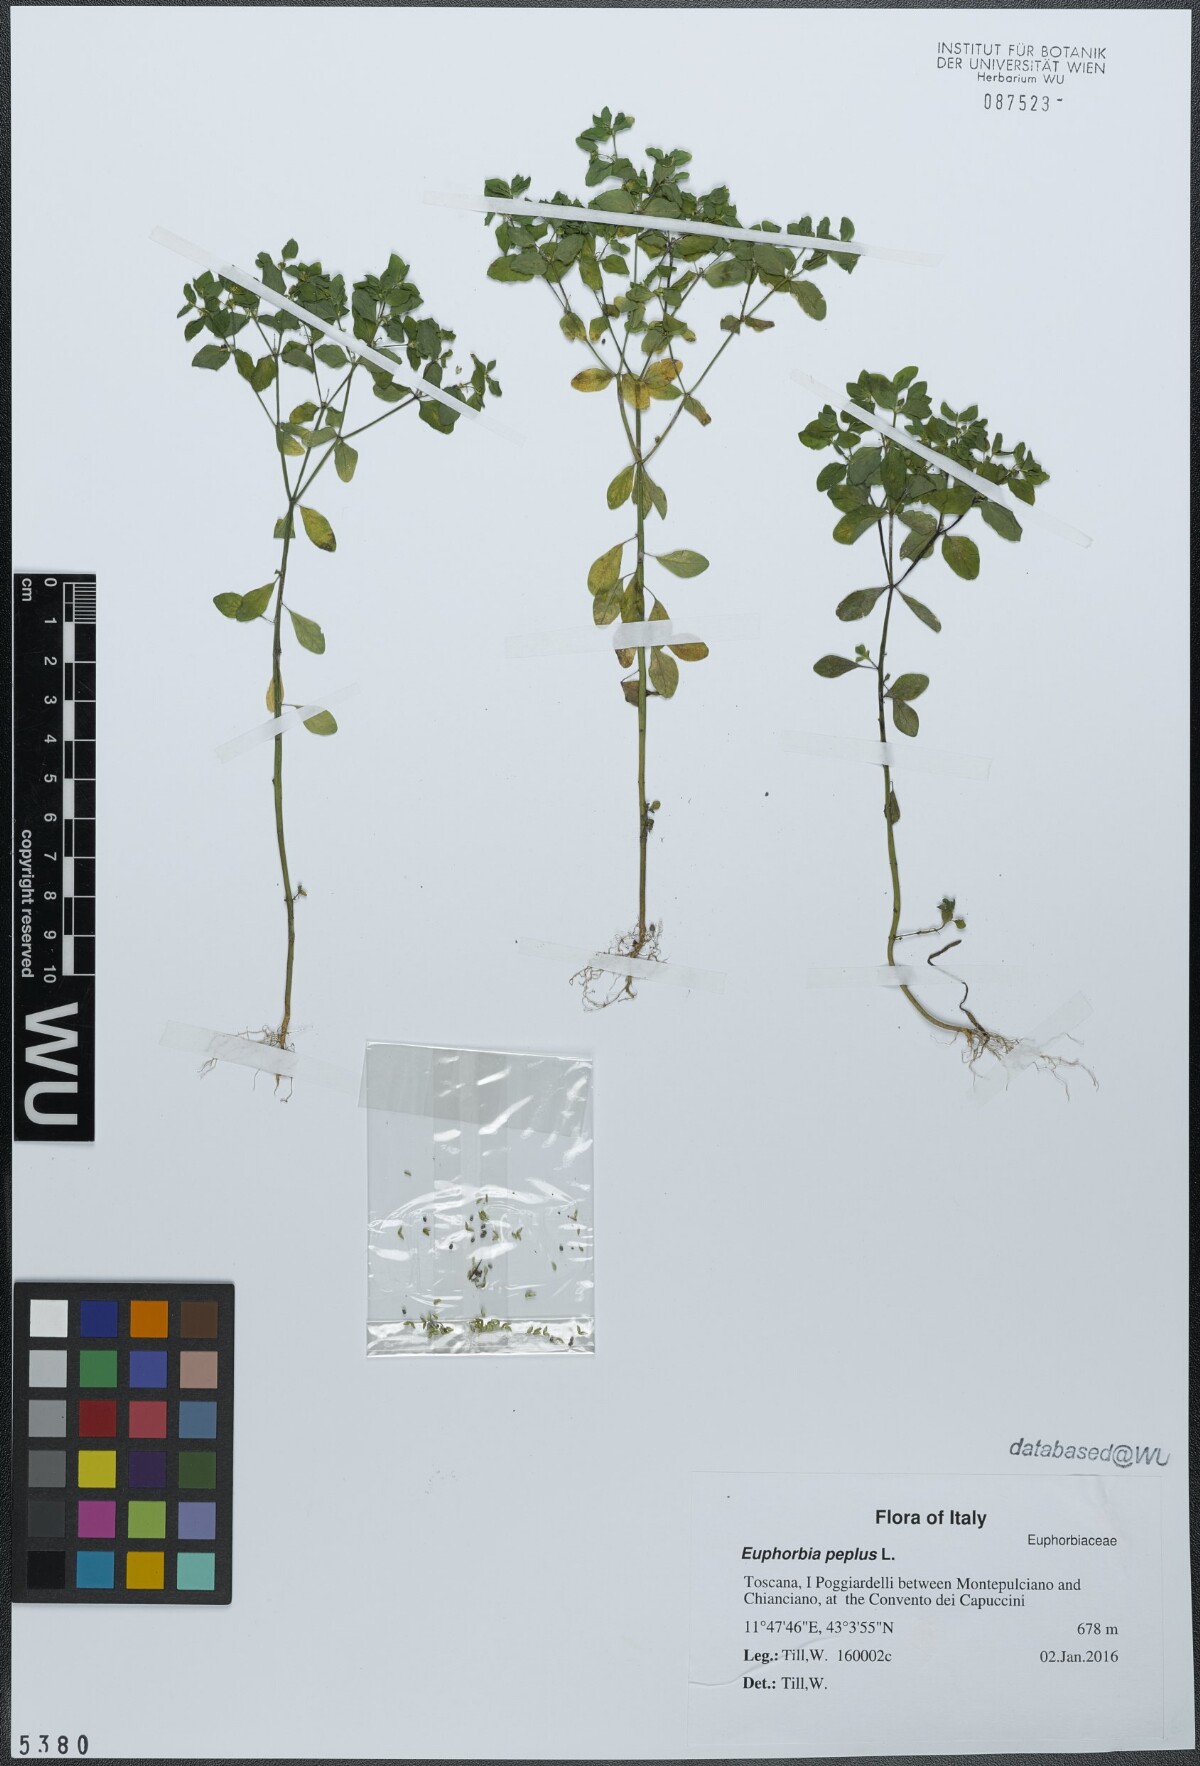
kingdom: Plantae
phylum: Tracheophyta
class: Magnoliopsida
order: Malpighiales
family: Euphorbiaceae
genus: Euphorbia
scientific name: Euphorbia peplus
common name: Petty spurge
